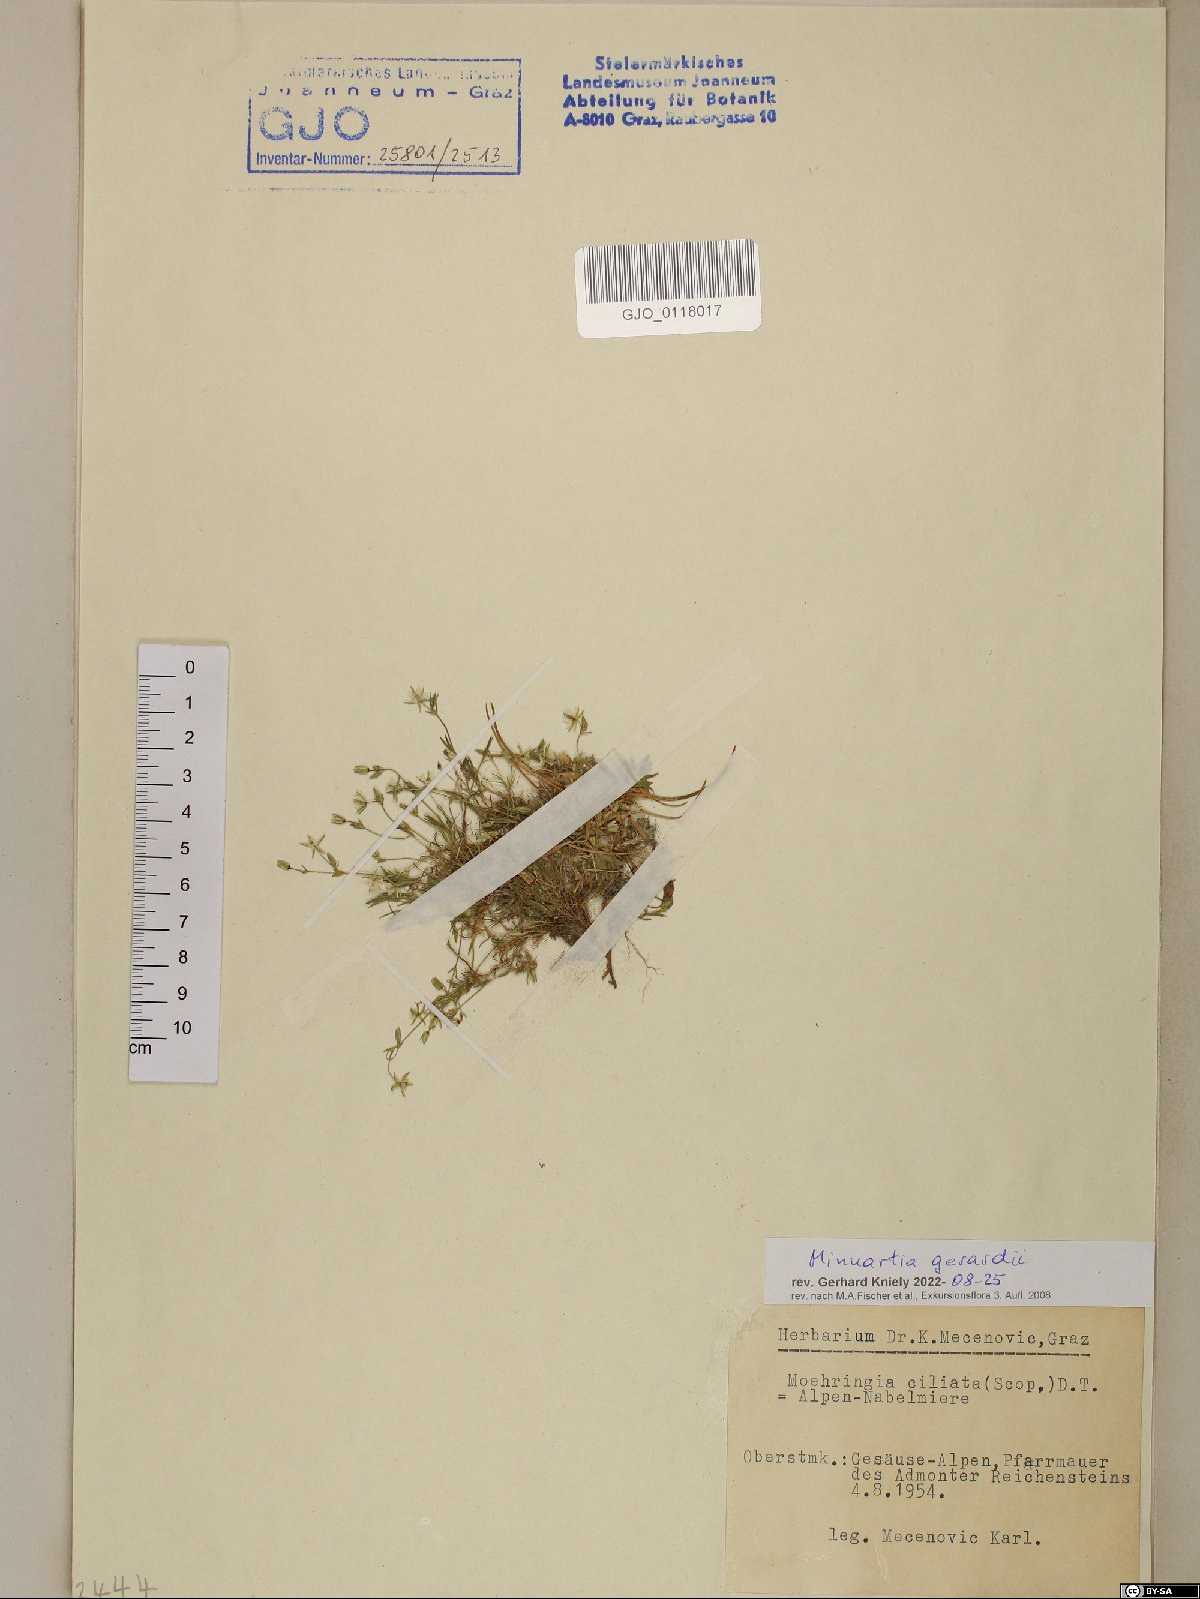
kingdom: Plantae
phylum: Tracheophyta
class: Magnoliopsida
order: Caryophyllales
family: Caryophyllaceae
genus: Sabulina
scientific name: Sabulina verna
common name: Spring sandwort
